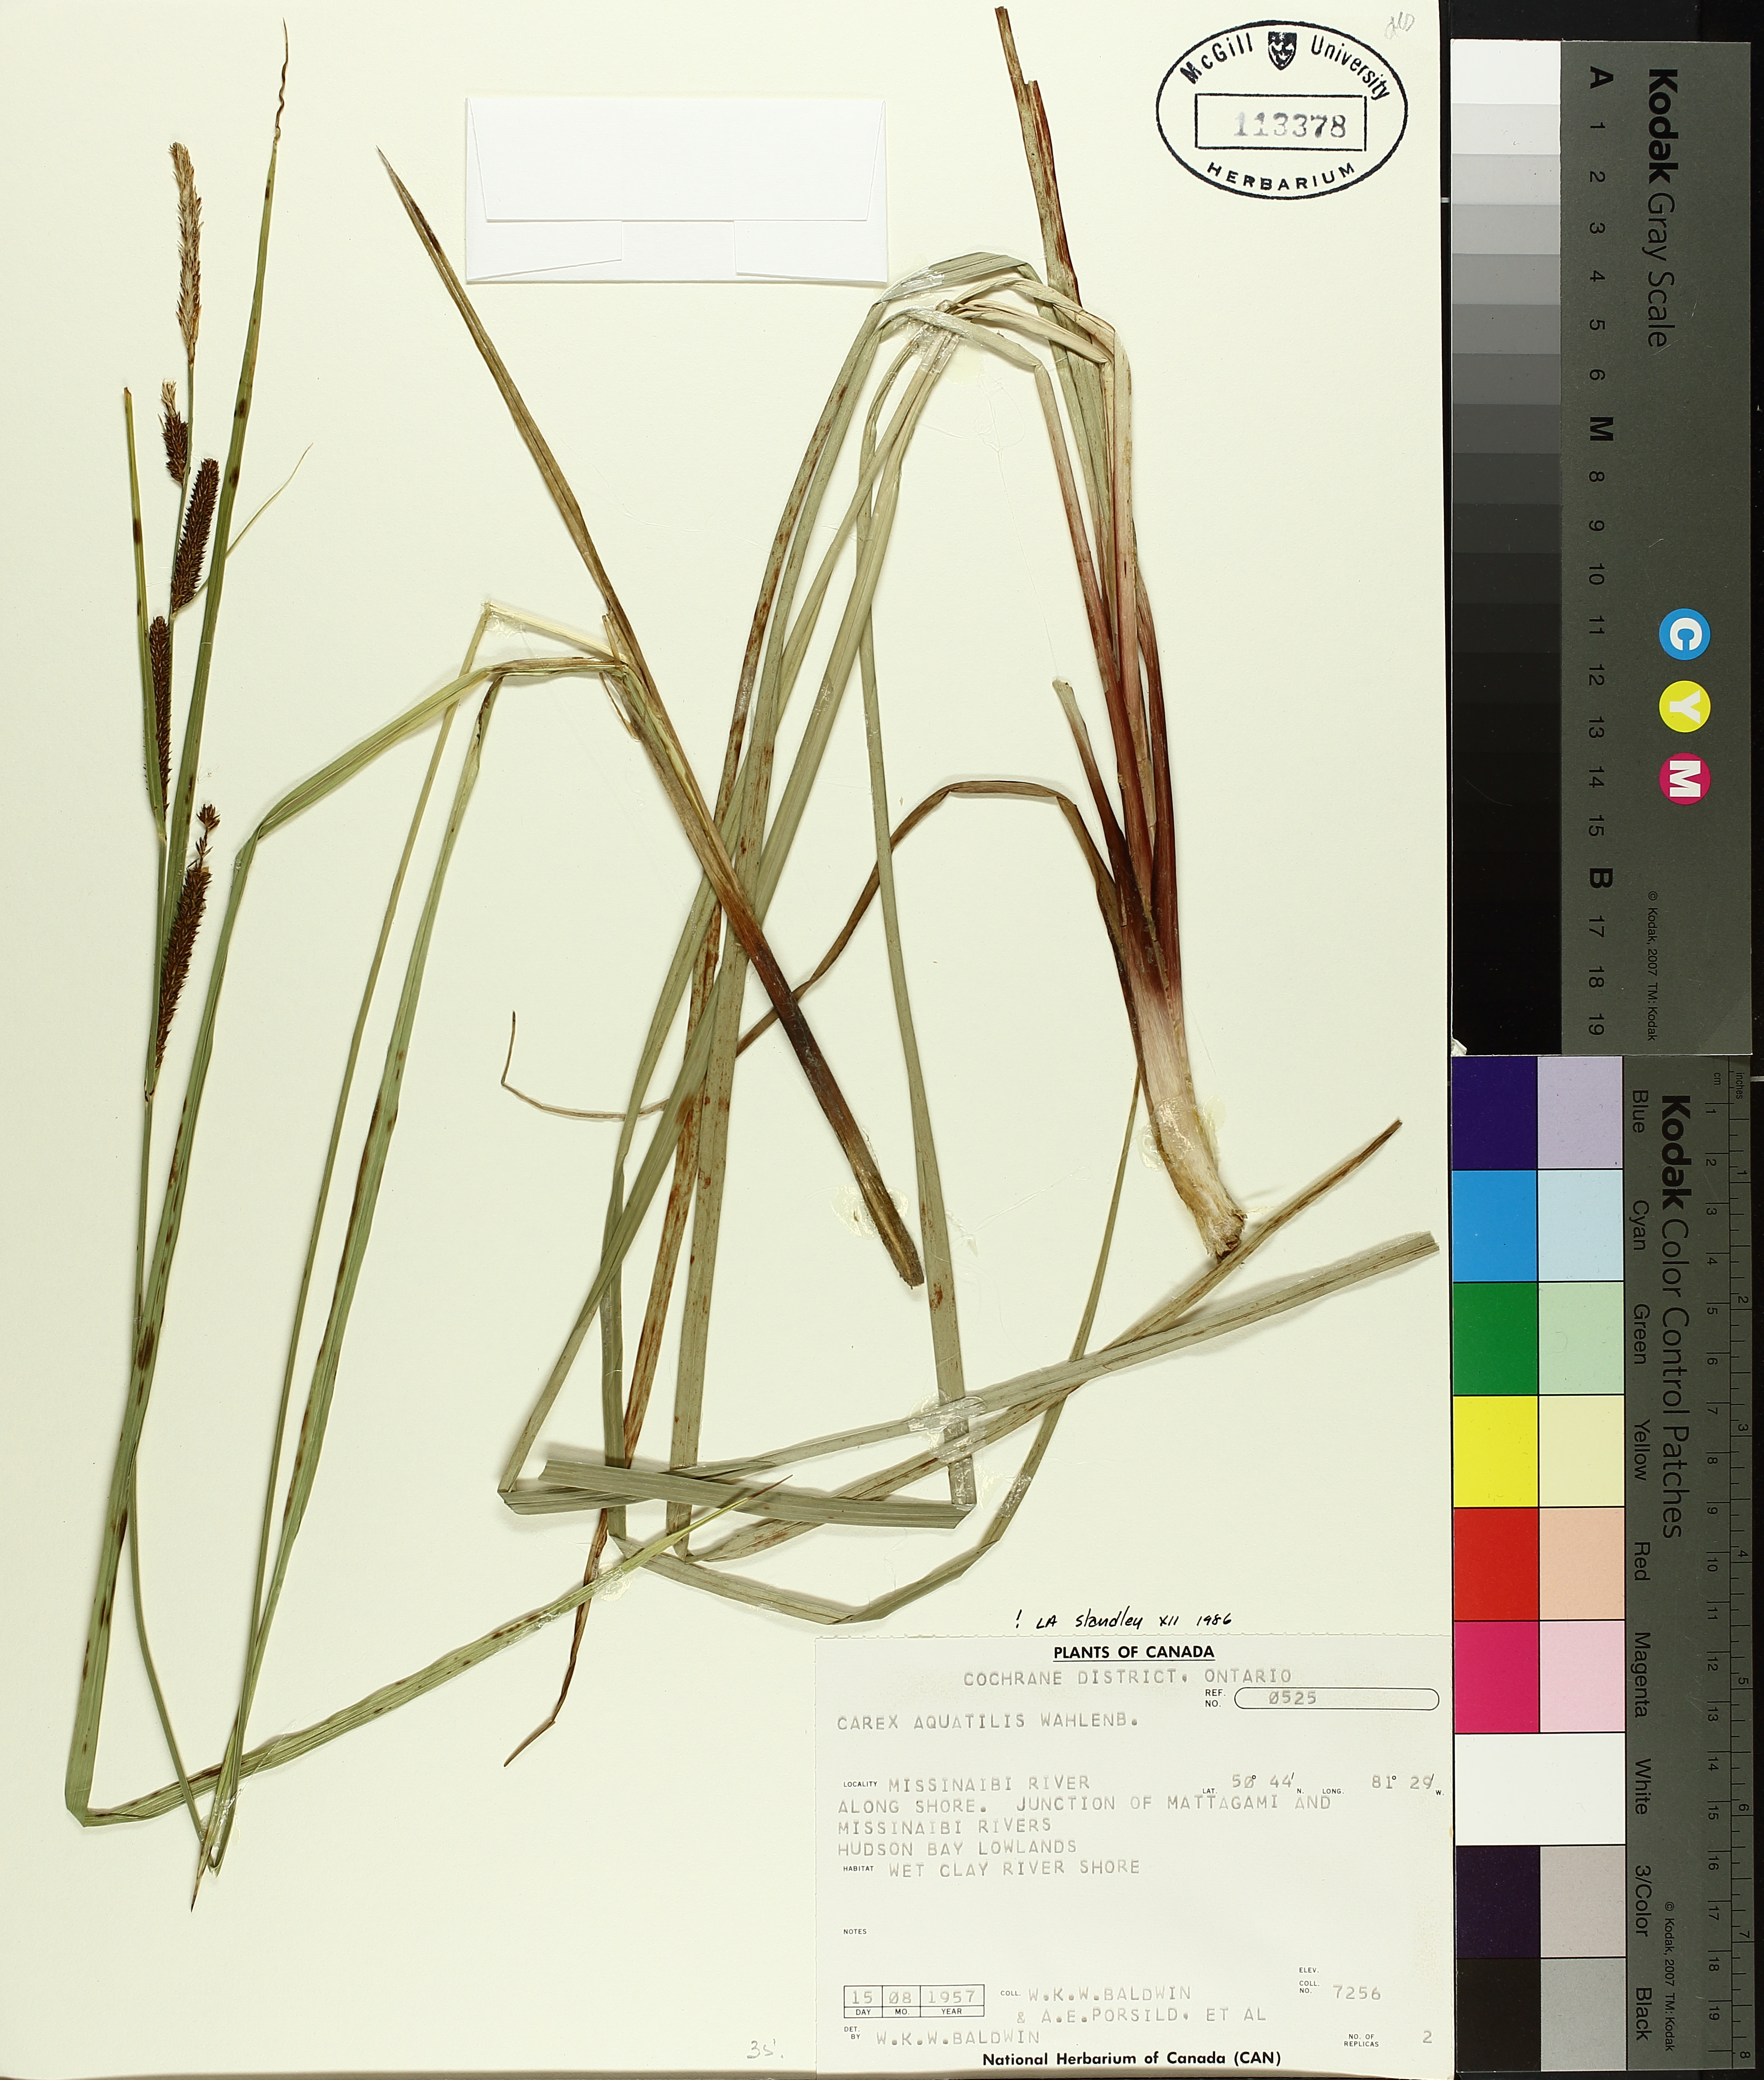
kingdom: Plantae
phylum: Tracheophyta
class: Liliopsida
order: Poales
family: Cyperaceae
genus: Carex
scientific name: Carex aquatilis
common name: Water sedge
